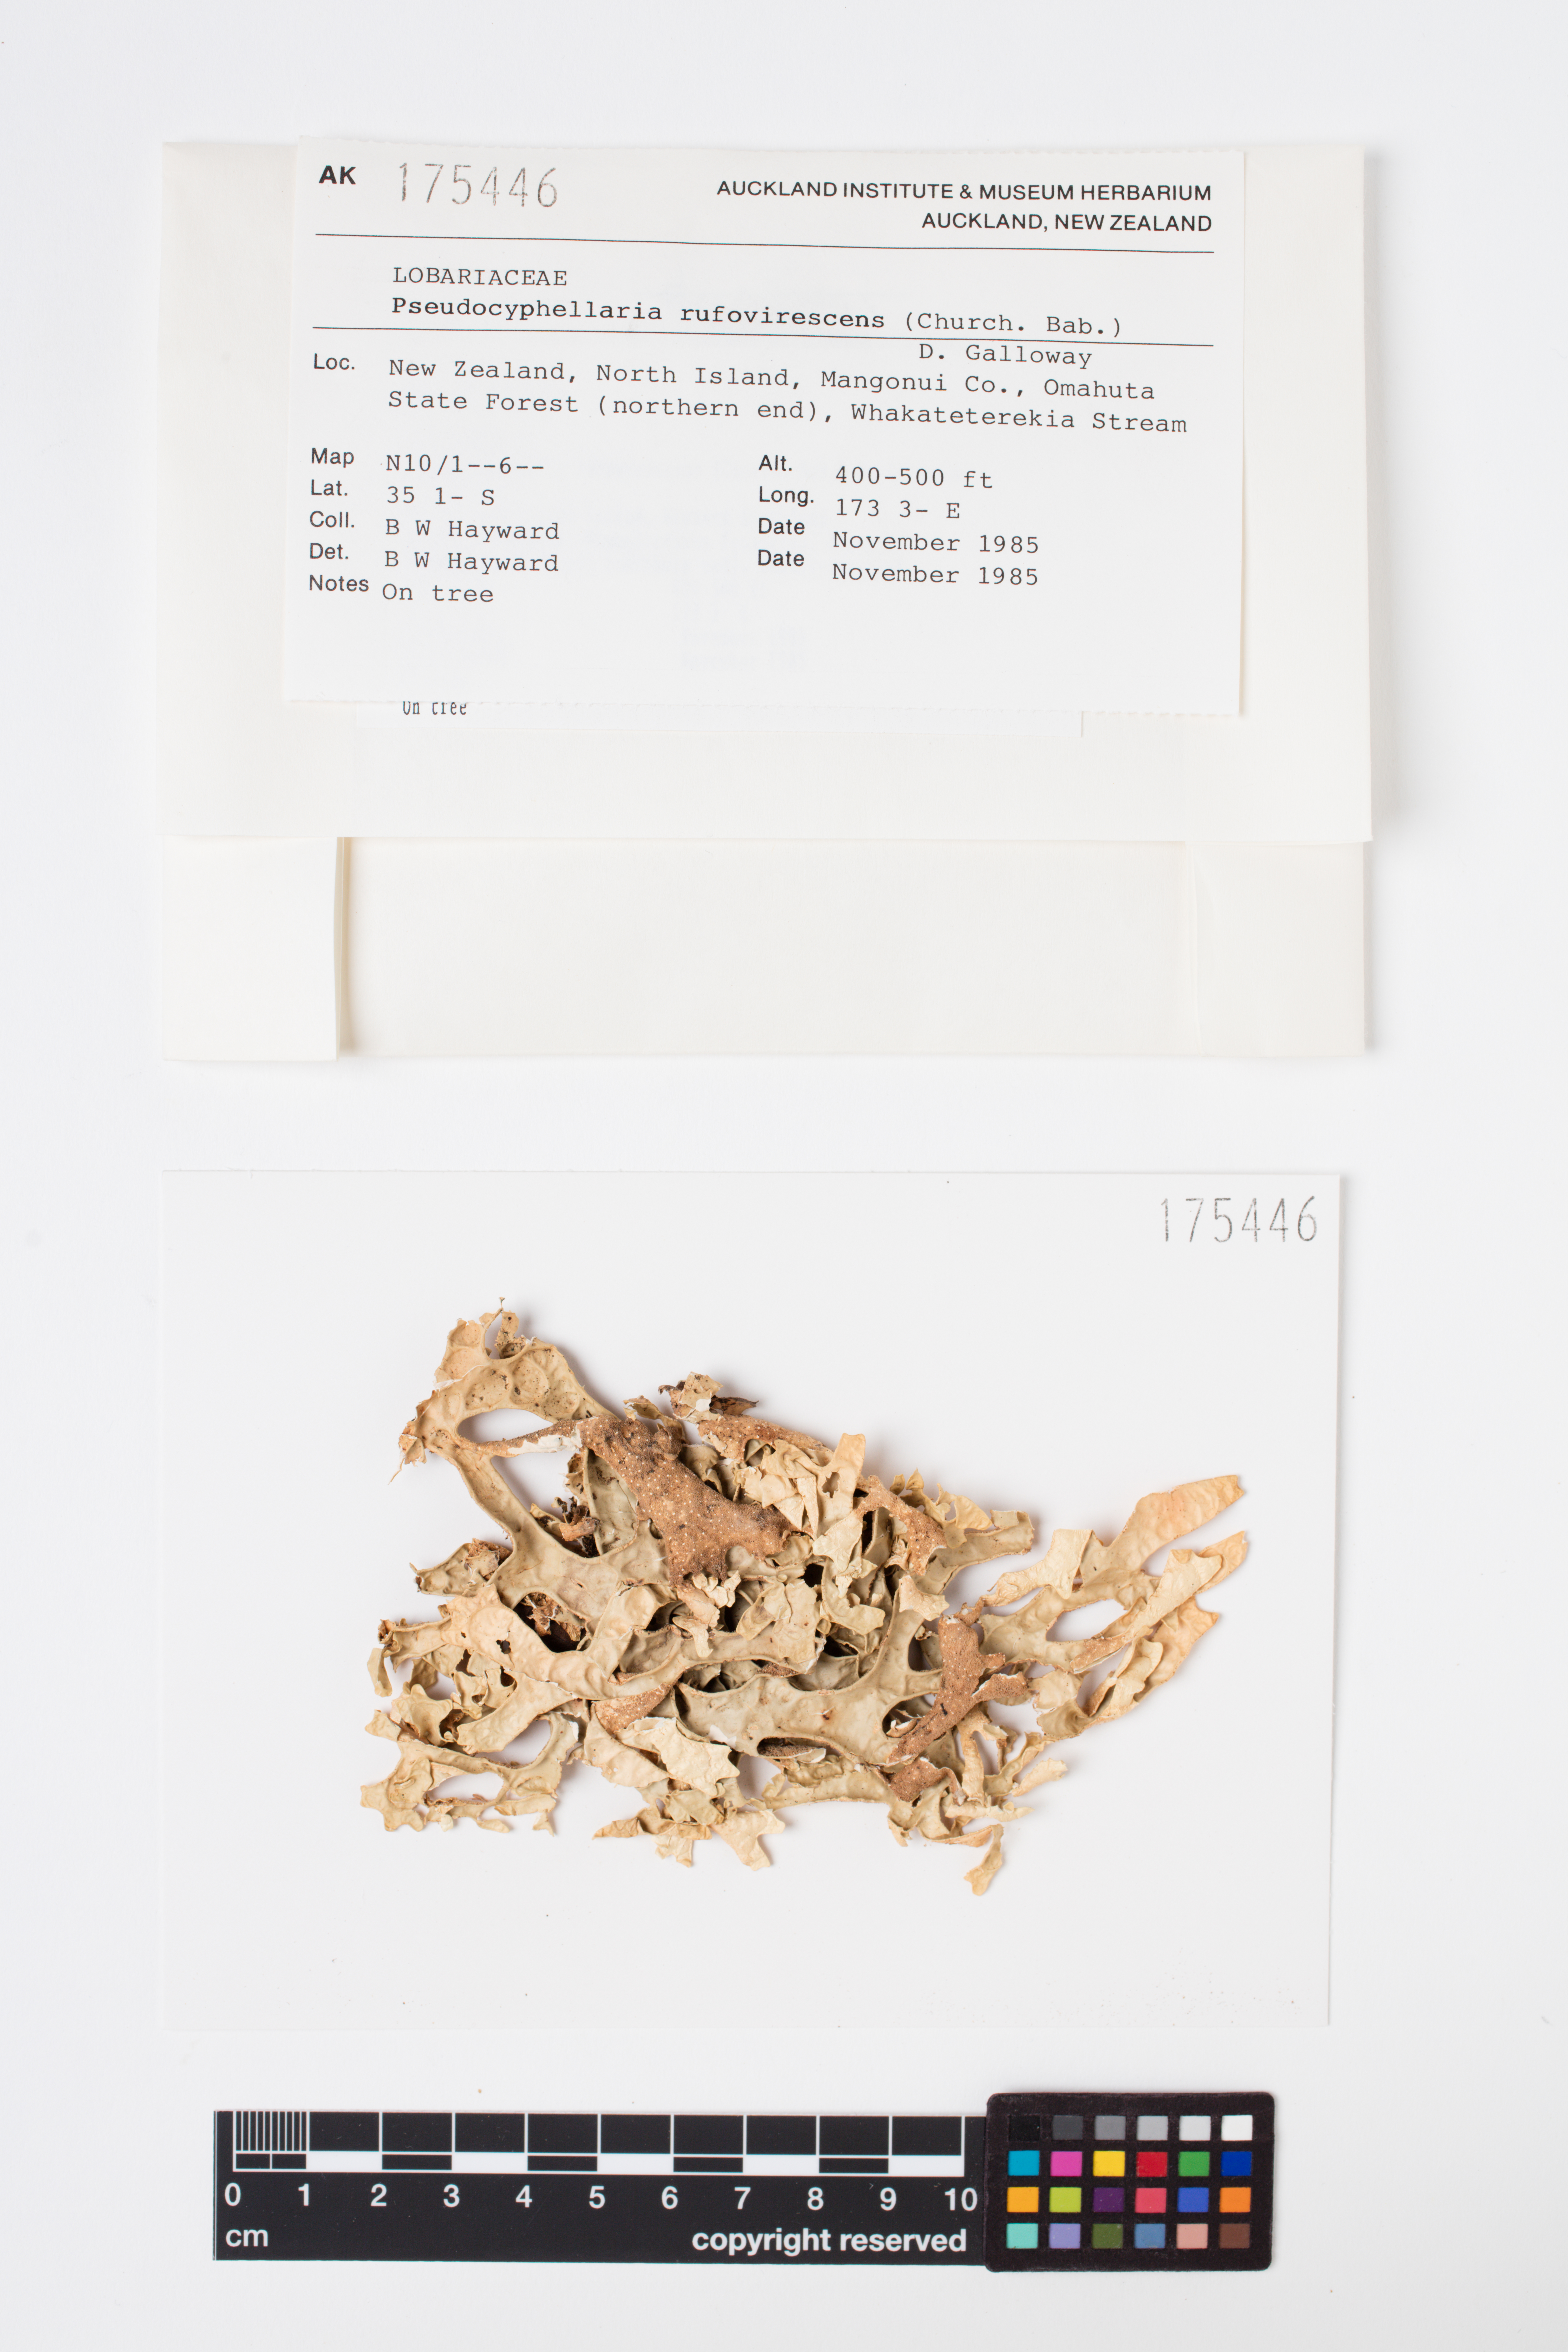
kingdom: Fungi
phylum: Ascomycota
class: Lecanoromycetes
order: Peltigerales
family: Lobariaceae
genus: Pseudocyphellaria
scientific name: Pseudocyphellaria rufovirescens
